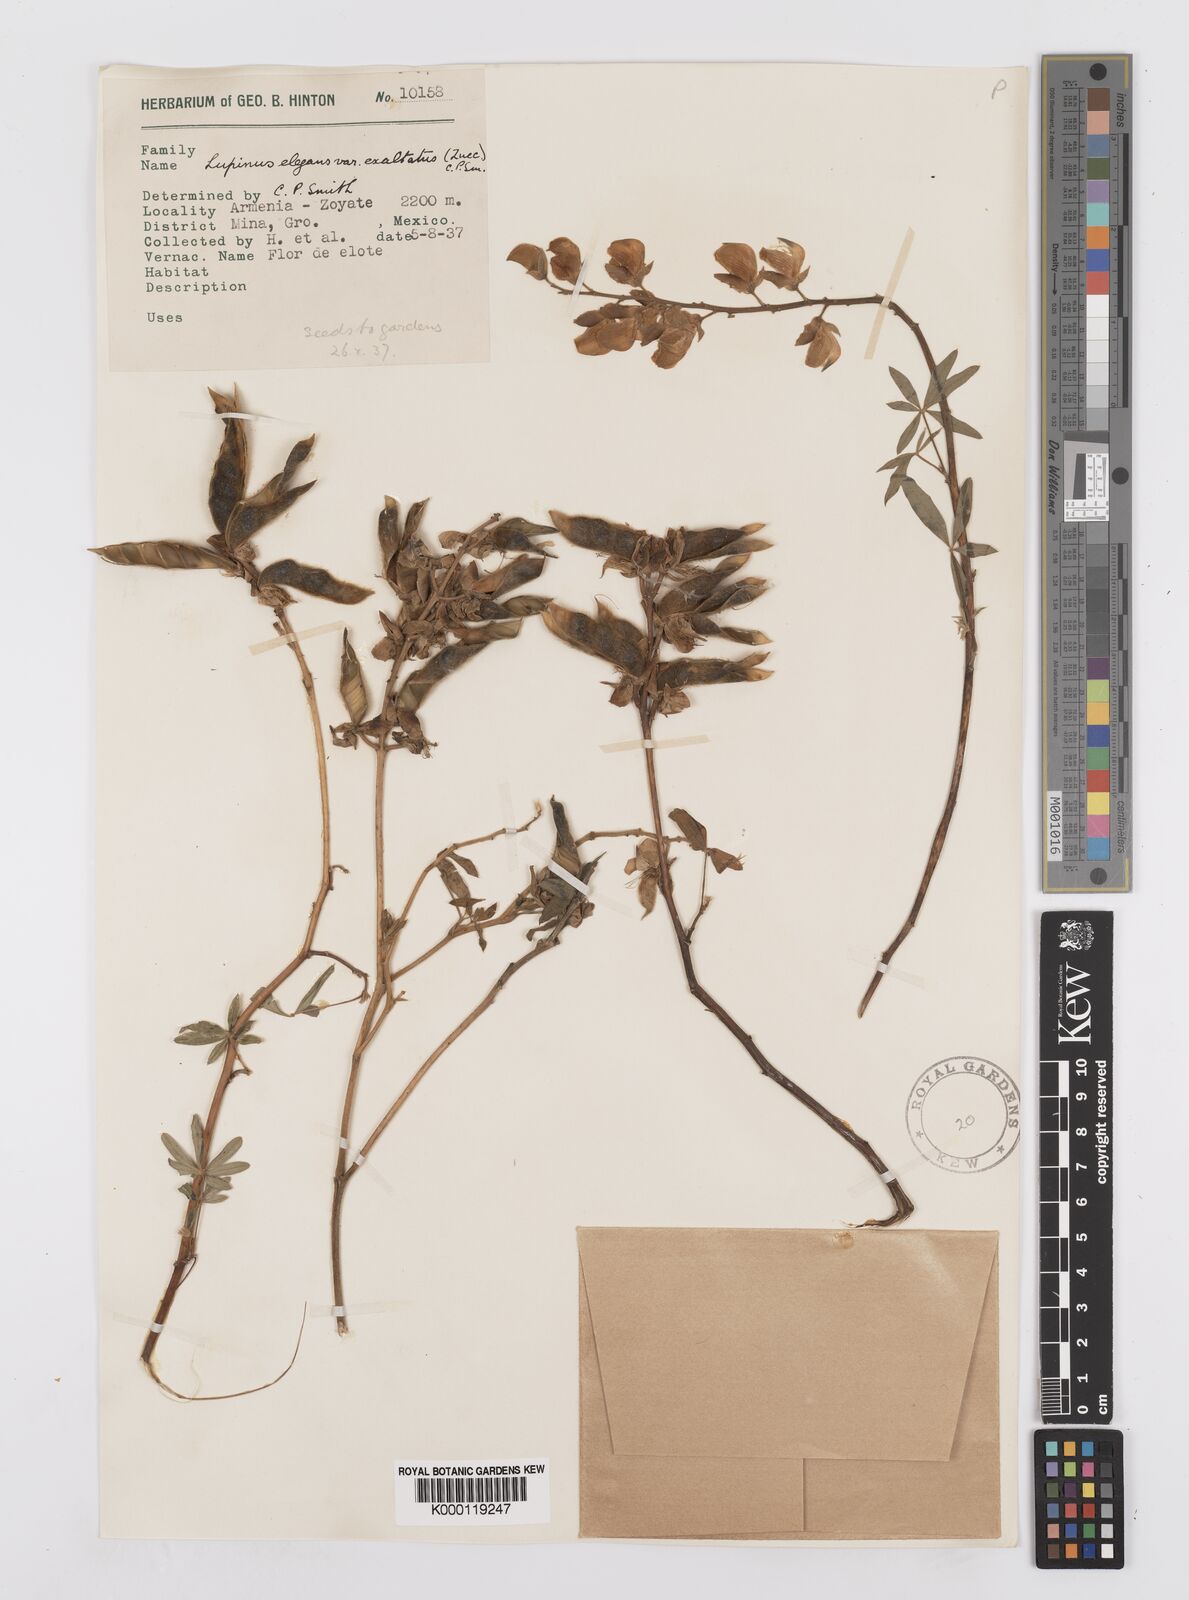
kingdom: Plantae
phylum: Tracheophyta
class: Magnoliopsida
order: Fabales
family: Fabaceae
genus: Lupinus
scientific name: Lupinus elegans
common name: Mexican lupine
